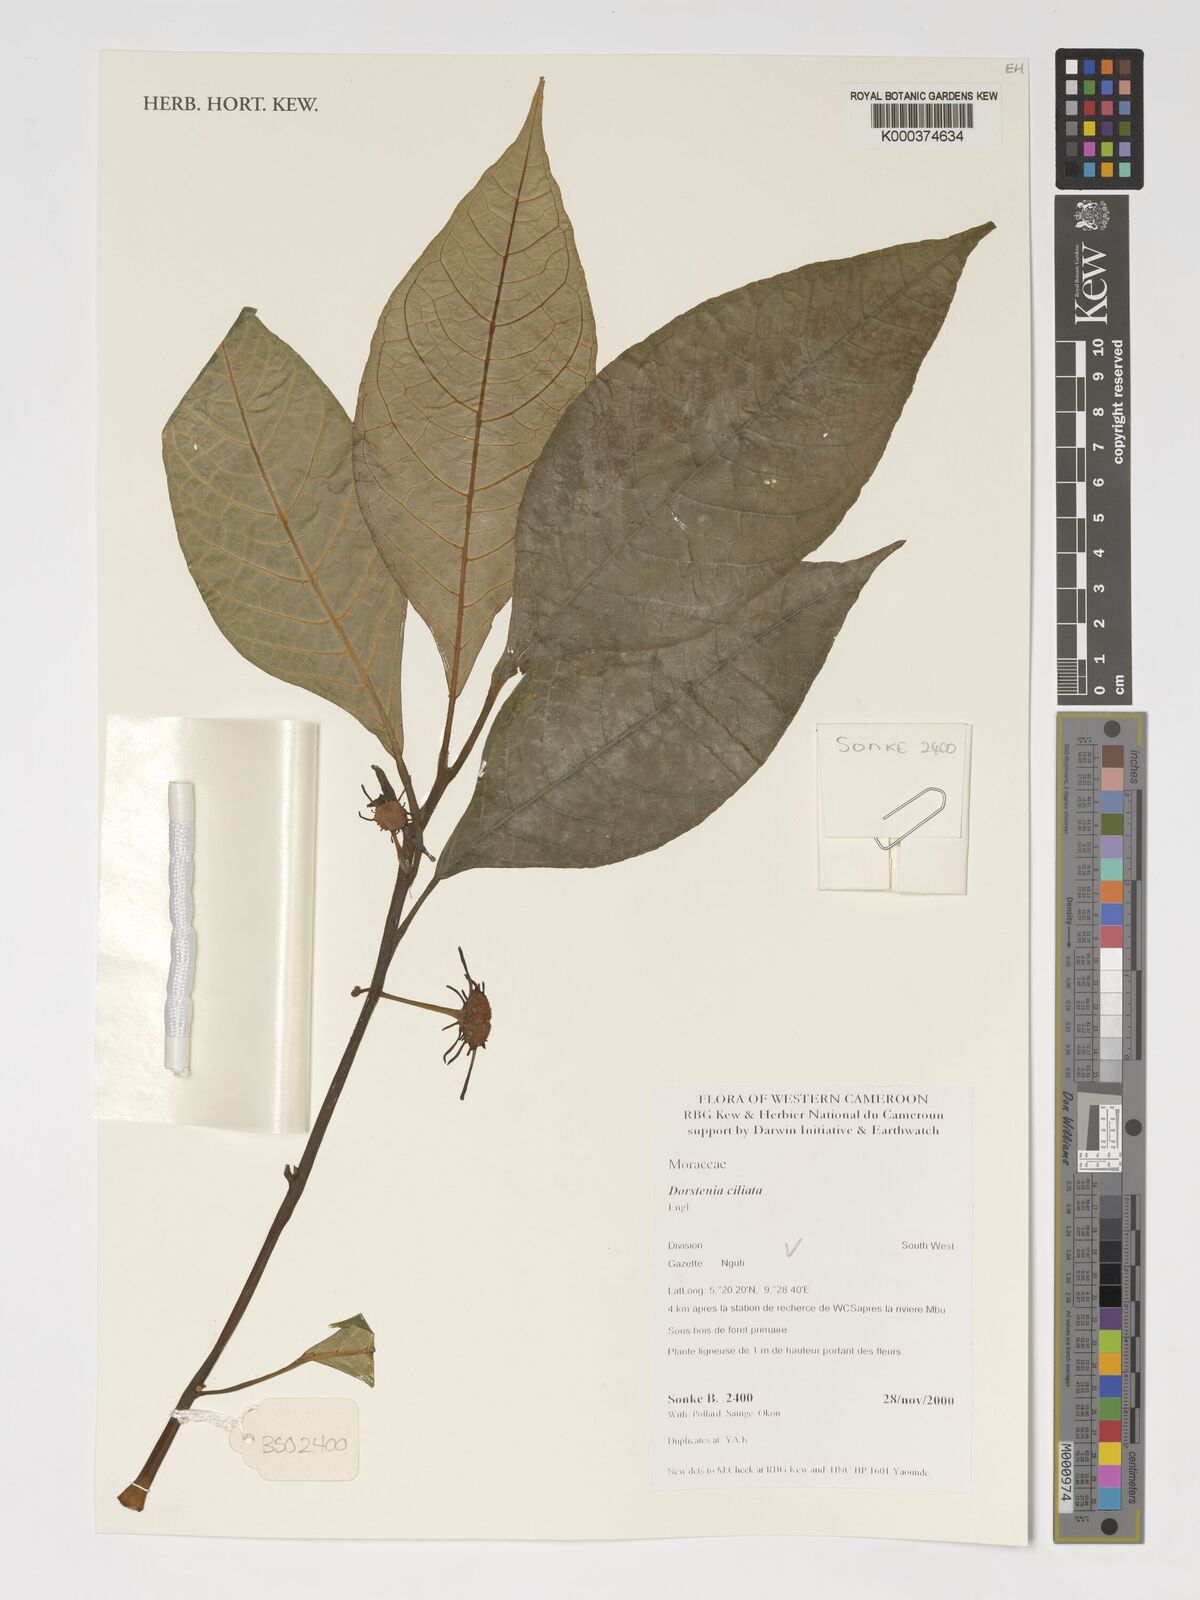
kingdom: Plantae
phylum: Tracheophyta
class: Magnoliopsida
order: Rosales
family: Moraceae
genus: Dorstenia
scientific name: Dorstenia ciliata
